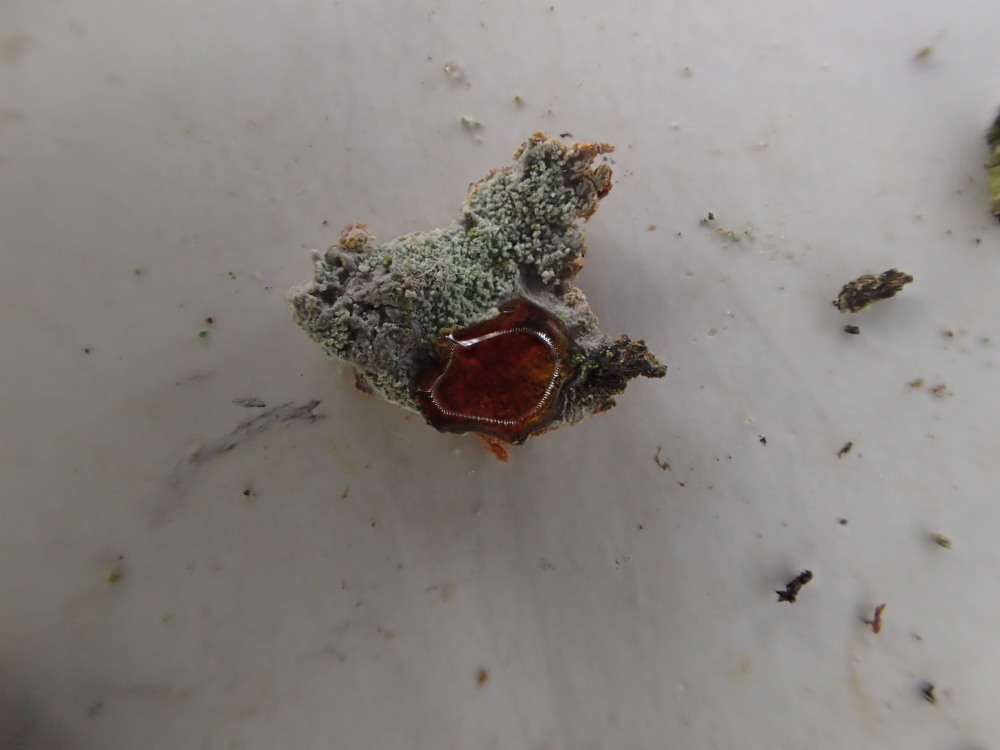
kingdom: Fungi
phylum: Ascomycota
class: Lecanoromycetes
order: Ostropales
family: Phlyctidaceae
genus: Phlyctis
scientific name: Phlyctis argena
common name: almindelig sølvlav
